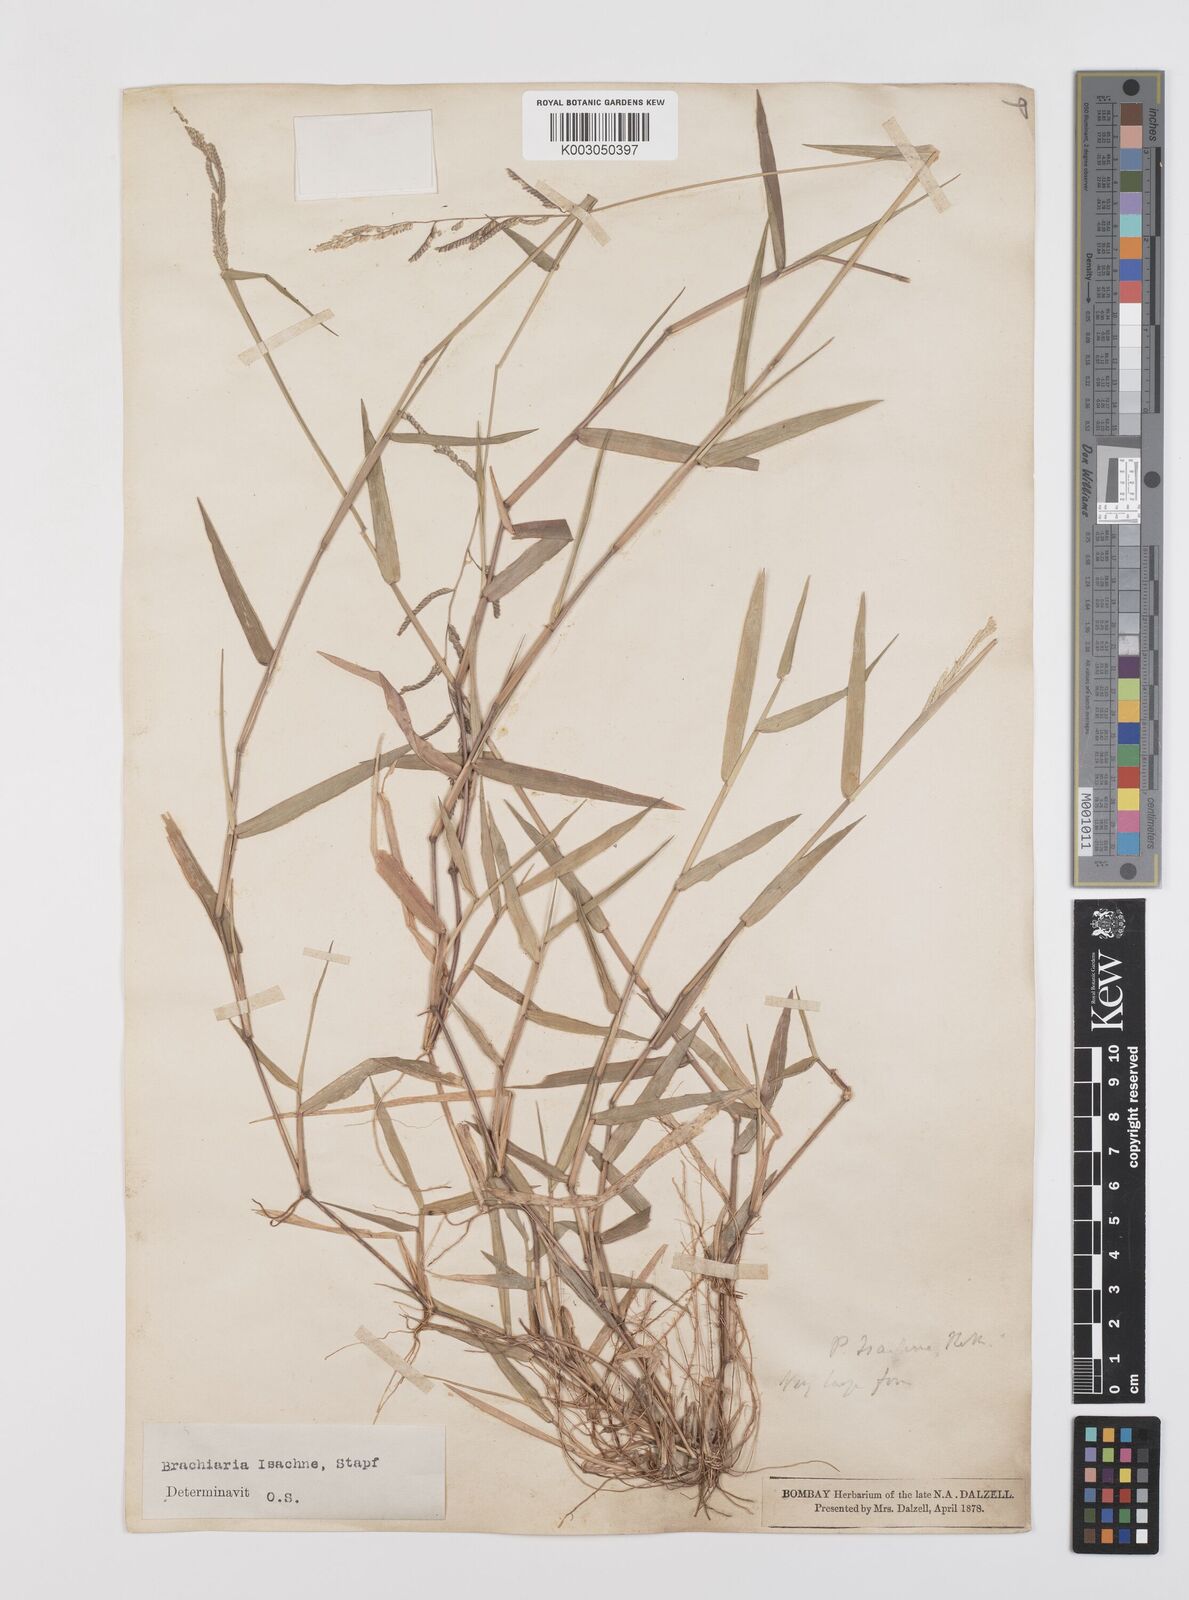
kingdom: Plantae
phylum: Tracheophyta
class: Liliopsida
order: Poales
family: Poaceae
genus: Moorochloa
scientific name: Moorochloa eruciformis
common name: Sweet signalgrass
